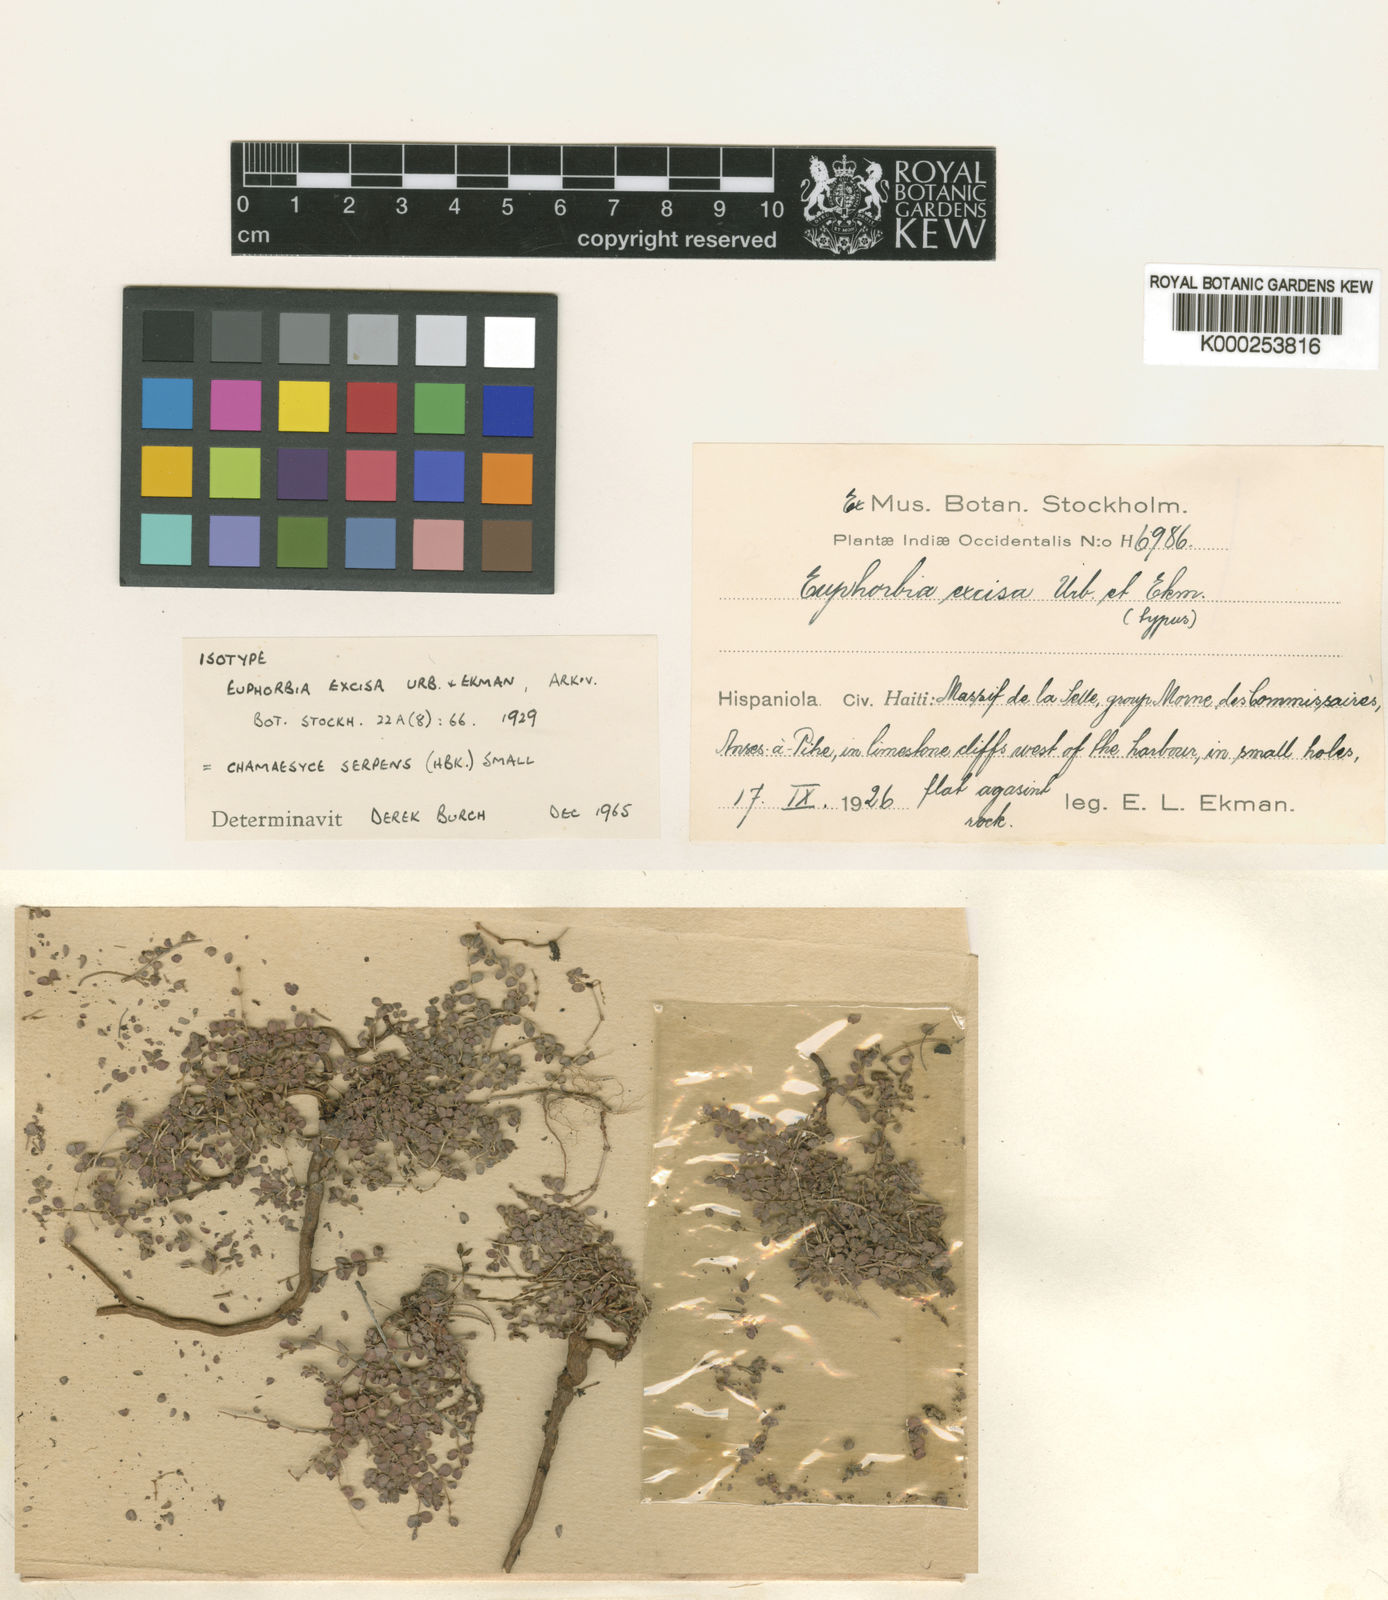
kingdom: Plantae
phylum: Tracheophyta
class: Magnoliopsida
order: Malpighiales
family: Euphorbiaceae
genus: Euphorbia
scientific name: Euphorbia excisa
